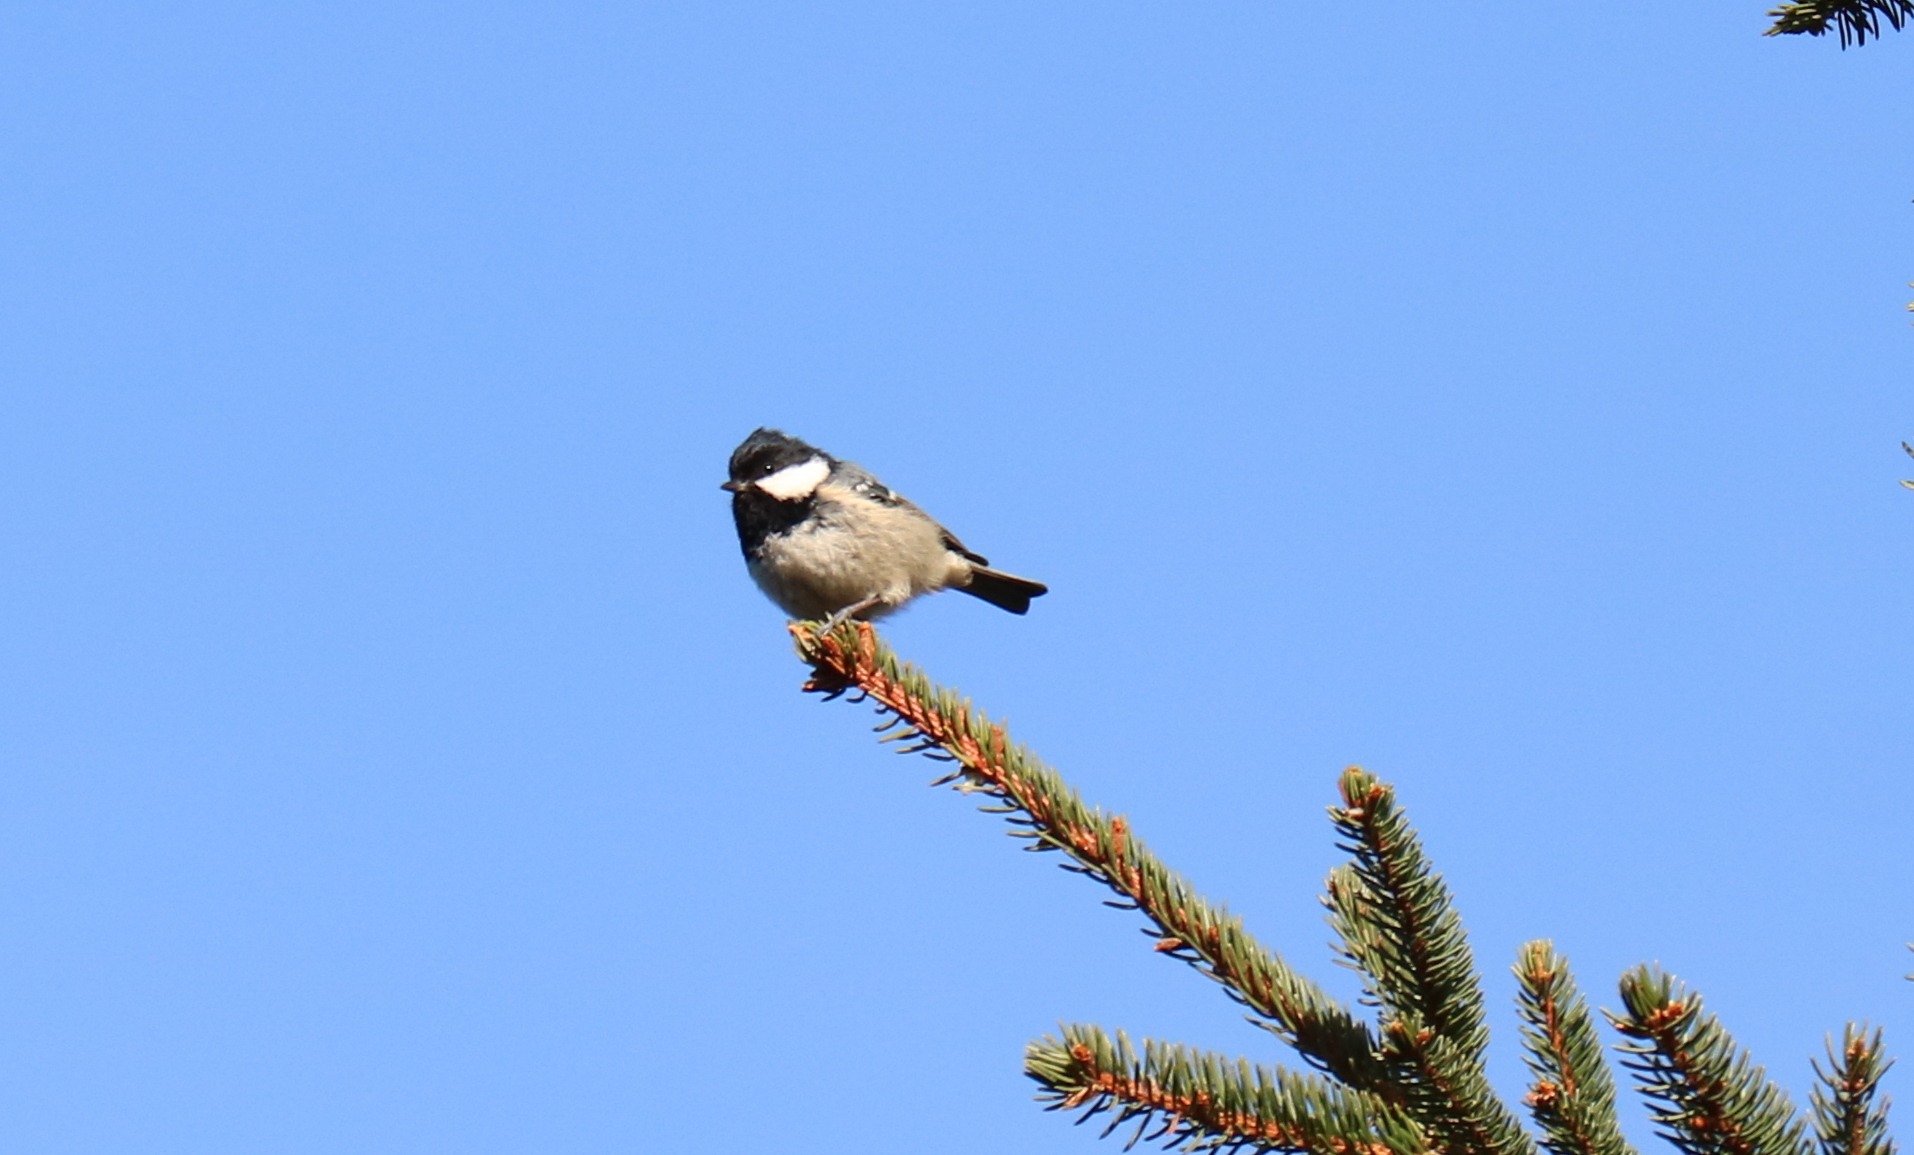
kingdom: Animalia
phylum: Chordata
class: Aves
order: Passeriformes
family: Paridae
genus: Periparus
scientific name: Periparus ater
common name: Sortmejse
